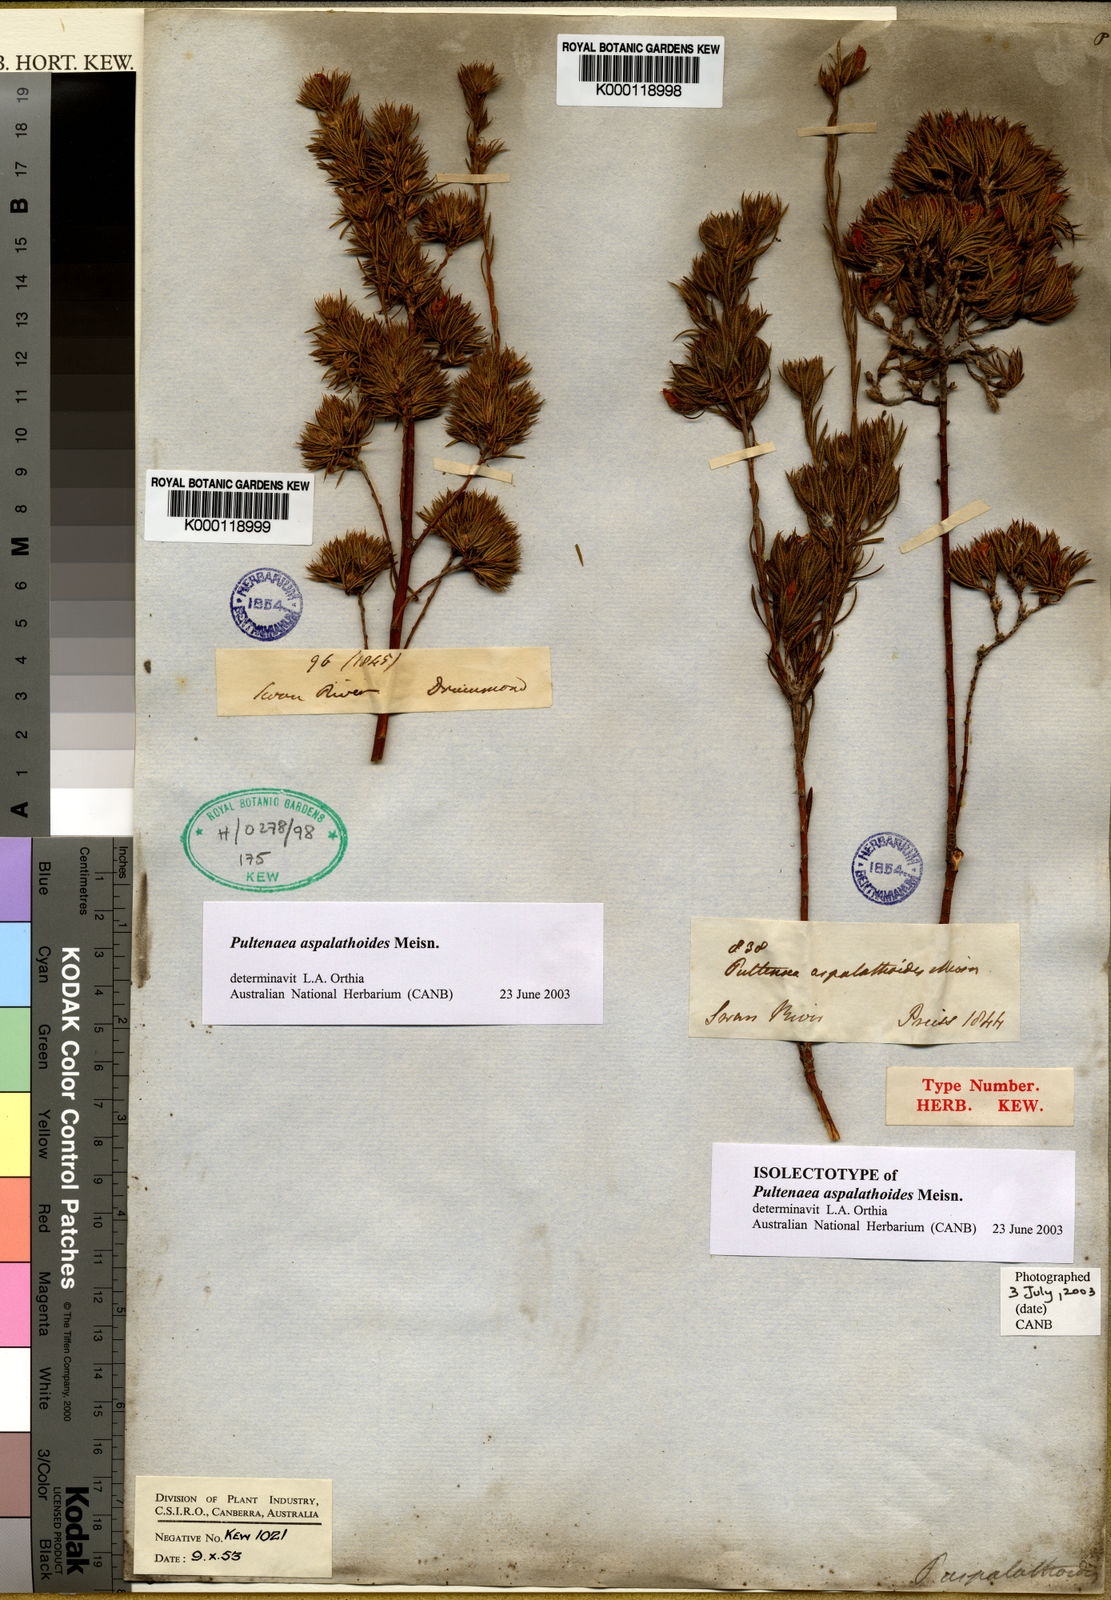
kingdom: Plantae
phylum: Tracheophyta
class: Magnoliopsida
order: Fabales
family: Fabaceae
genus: Pultenaea
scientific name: Pultenaea aspalathoides
